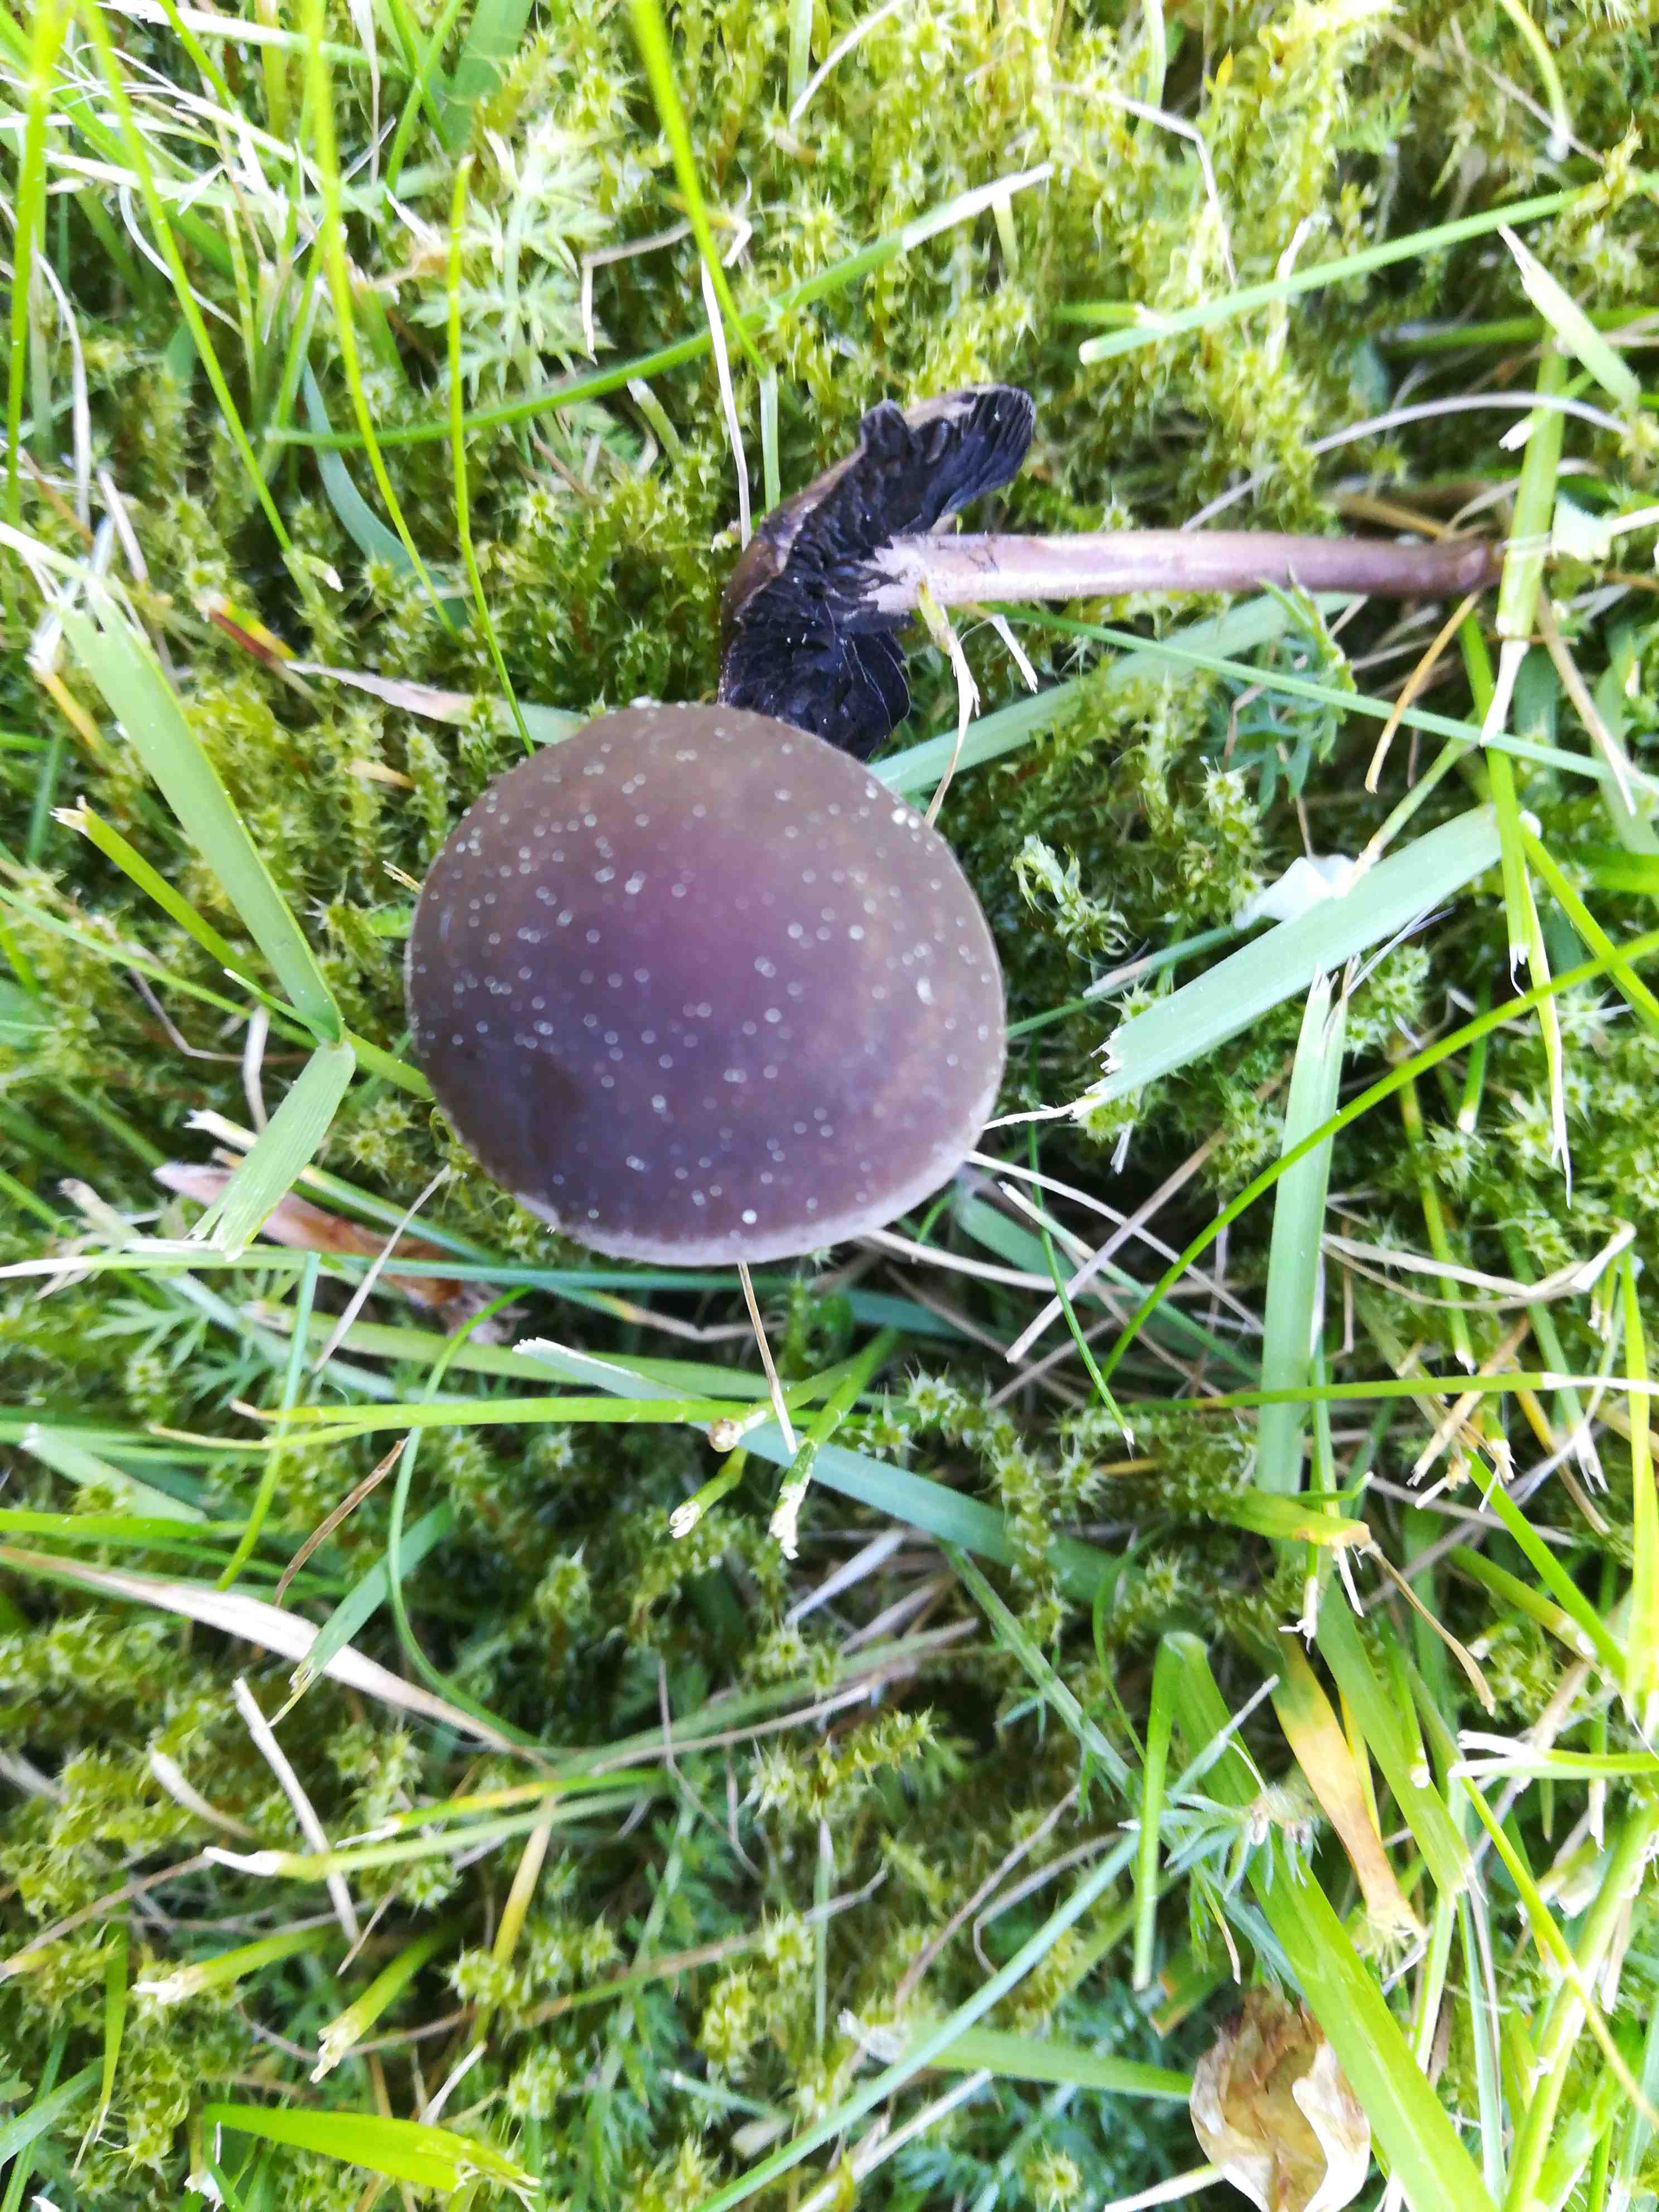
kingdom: Fungi
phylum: Basidiomycota
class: Agaricomycetes
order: Agaricales
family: Bolbitiaceae
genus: Panaeolus
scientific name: Panaeolus
